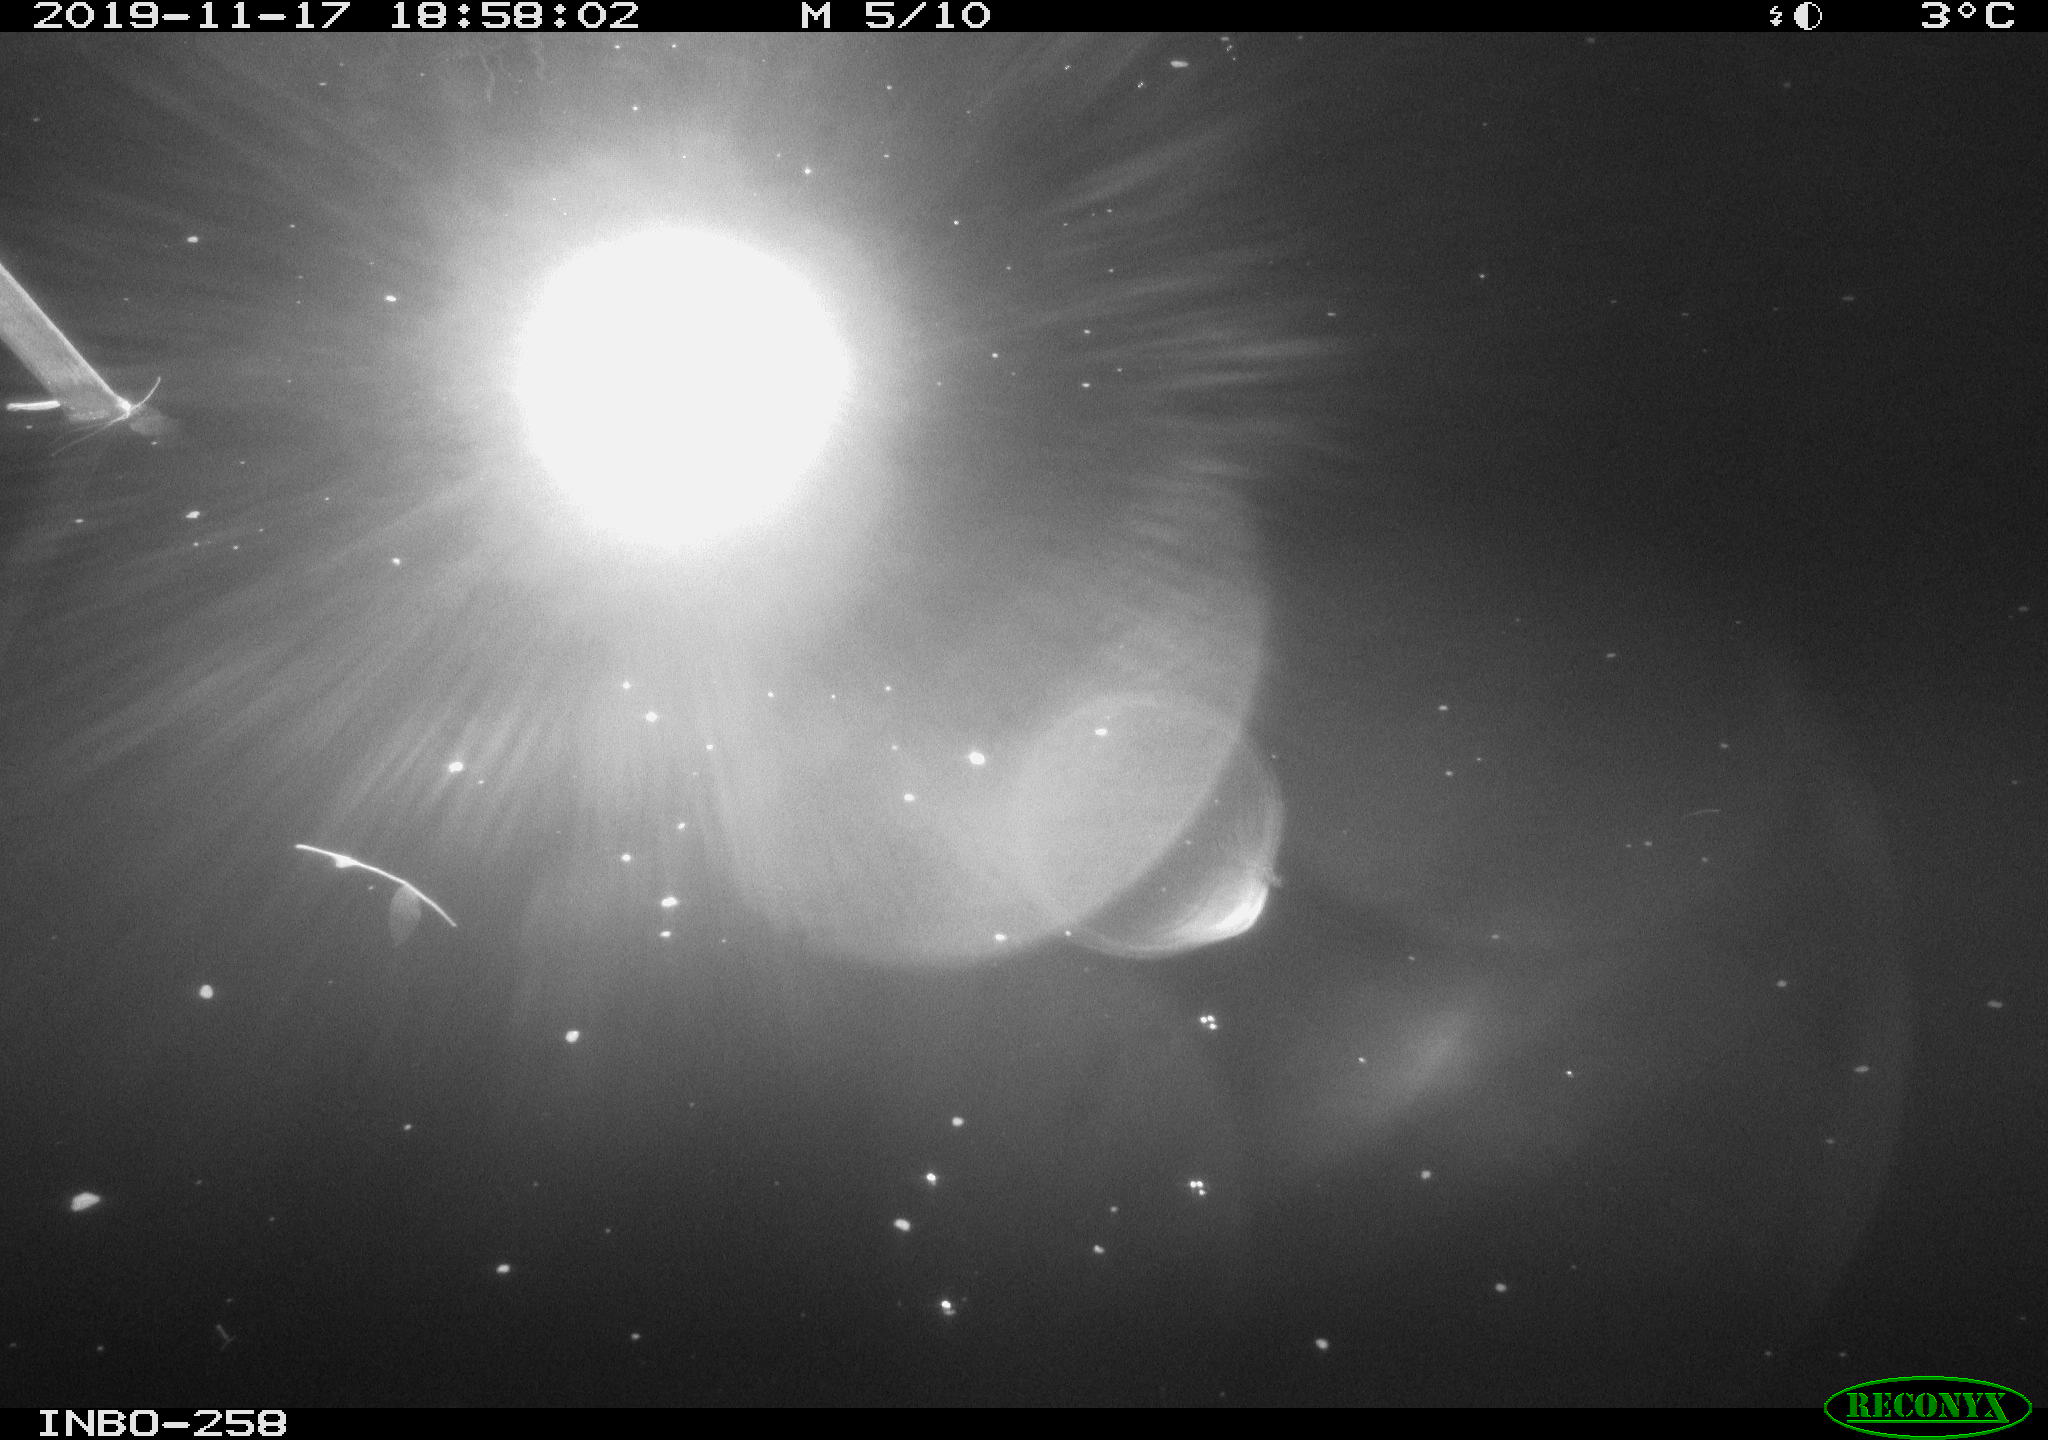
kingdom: Animalia
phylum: Chordata
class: Aves
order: Anseriformes
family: Anatidae
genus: Anas
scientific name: Anas platyrhynchos
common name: Mallard
